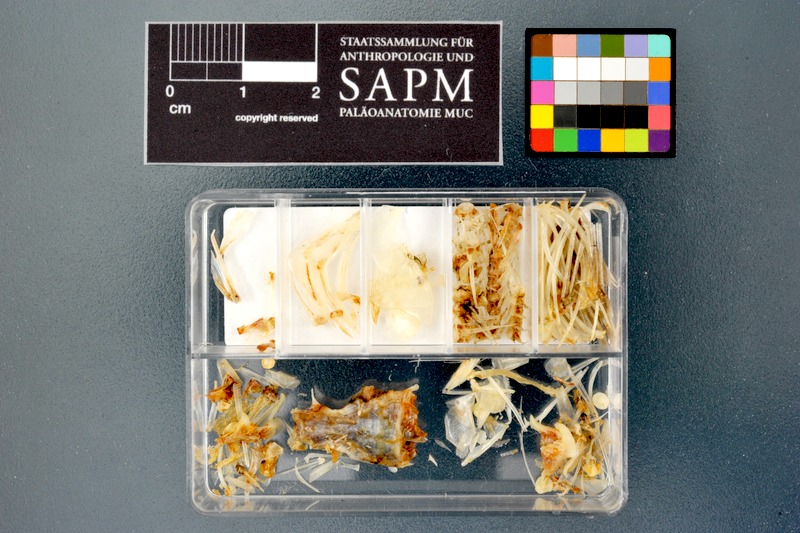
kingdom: Animalia
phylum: Chordata
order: Cypriniformes
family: Cyprinidae
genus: Enteromius
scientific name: Enteromius perince
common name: Three spot barb
